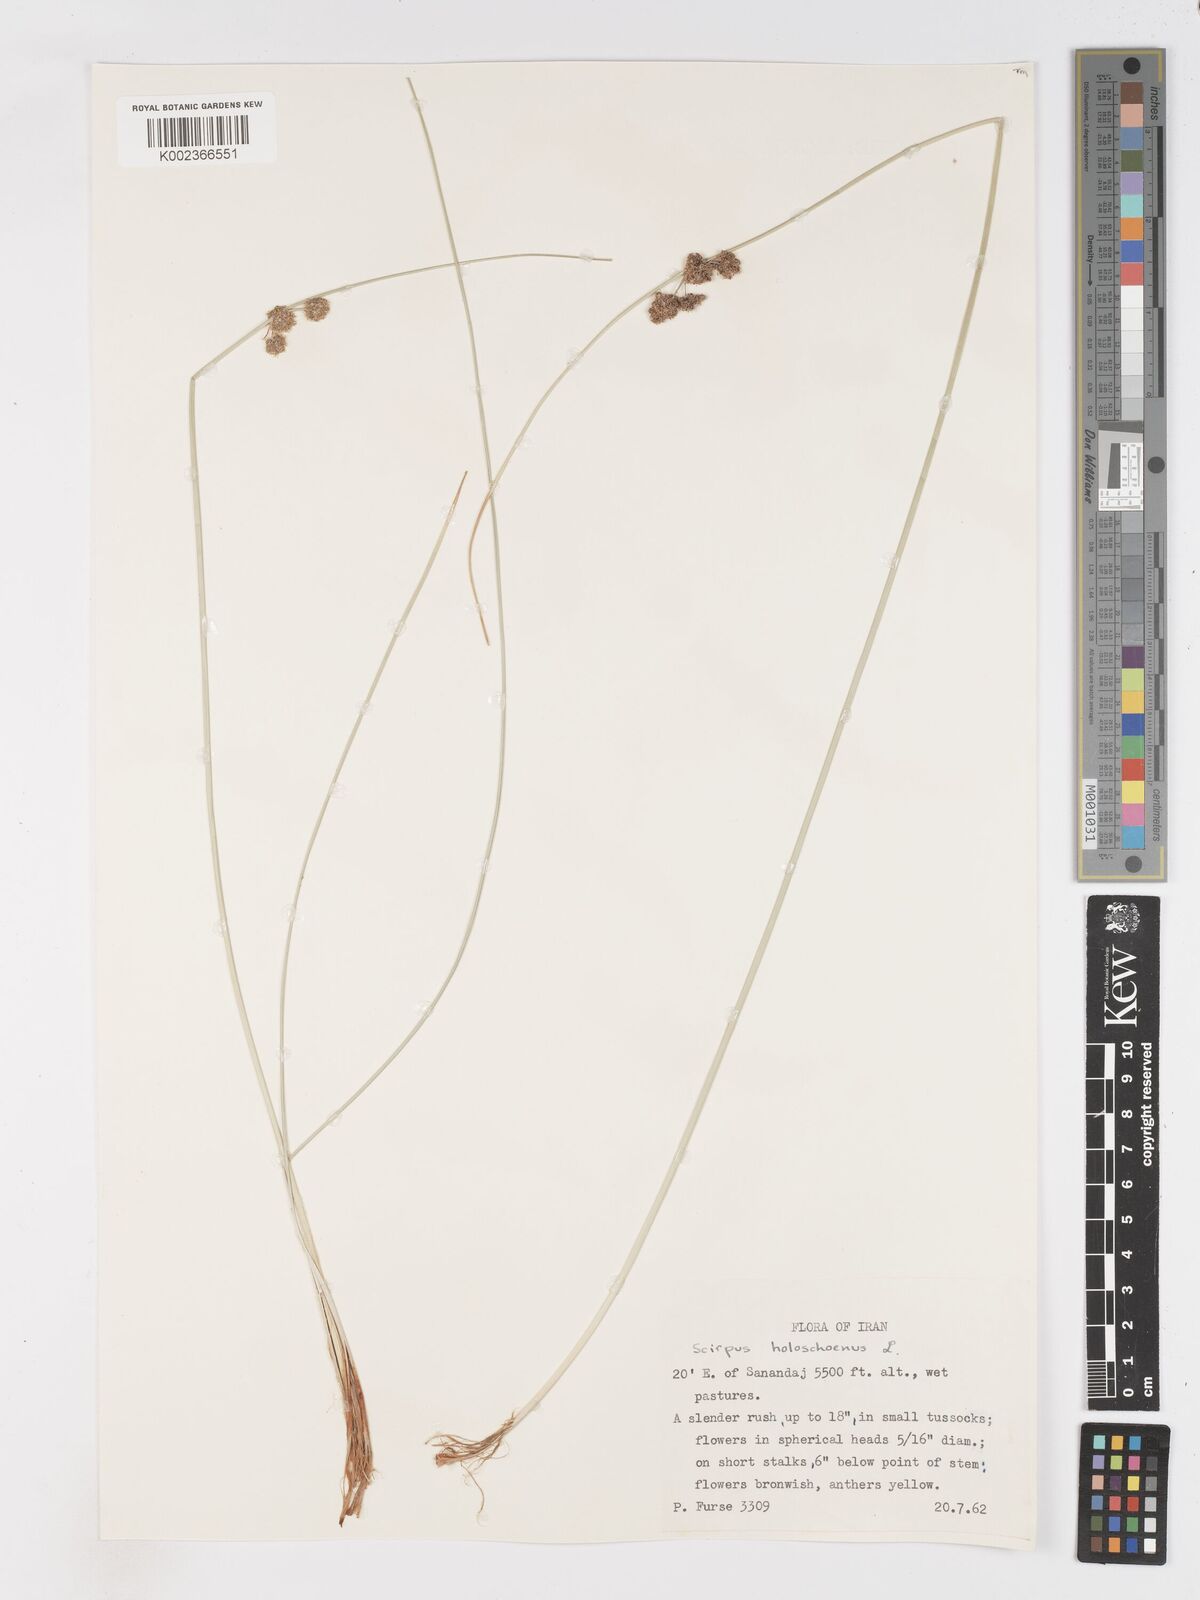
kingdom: Plantae
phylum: Tracheophyta
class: Liliopsida
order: Poales
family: Cyperaceae
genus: Scirpoides
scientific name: Scirpoides holoschoenus
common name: Round-headed club-rush
